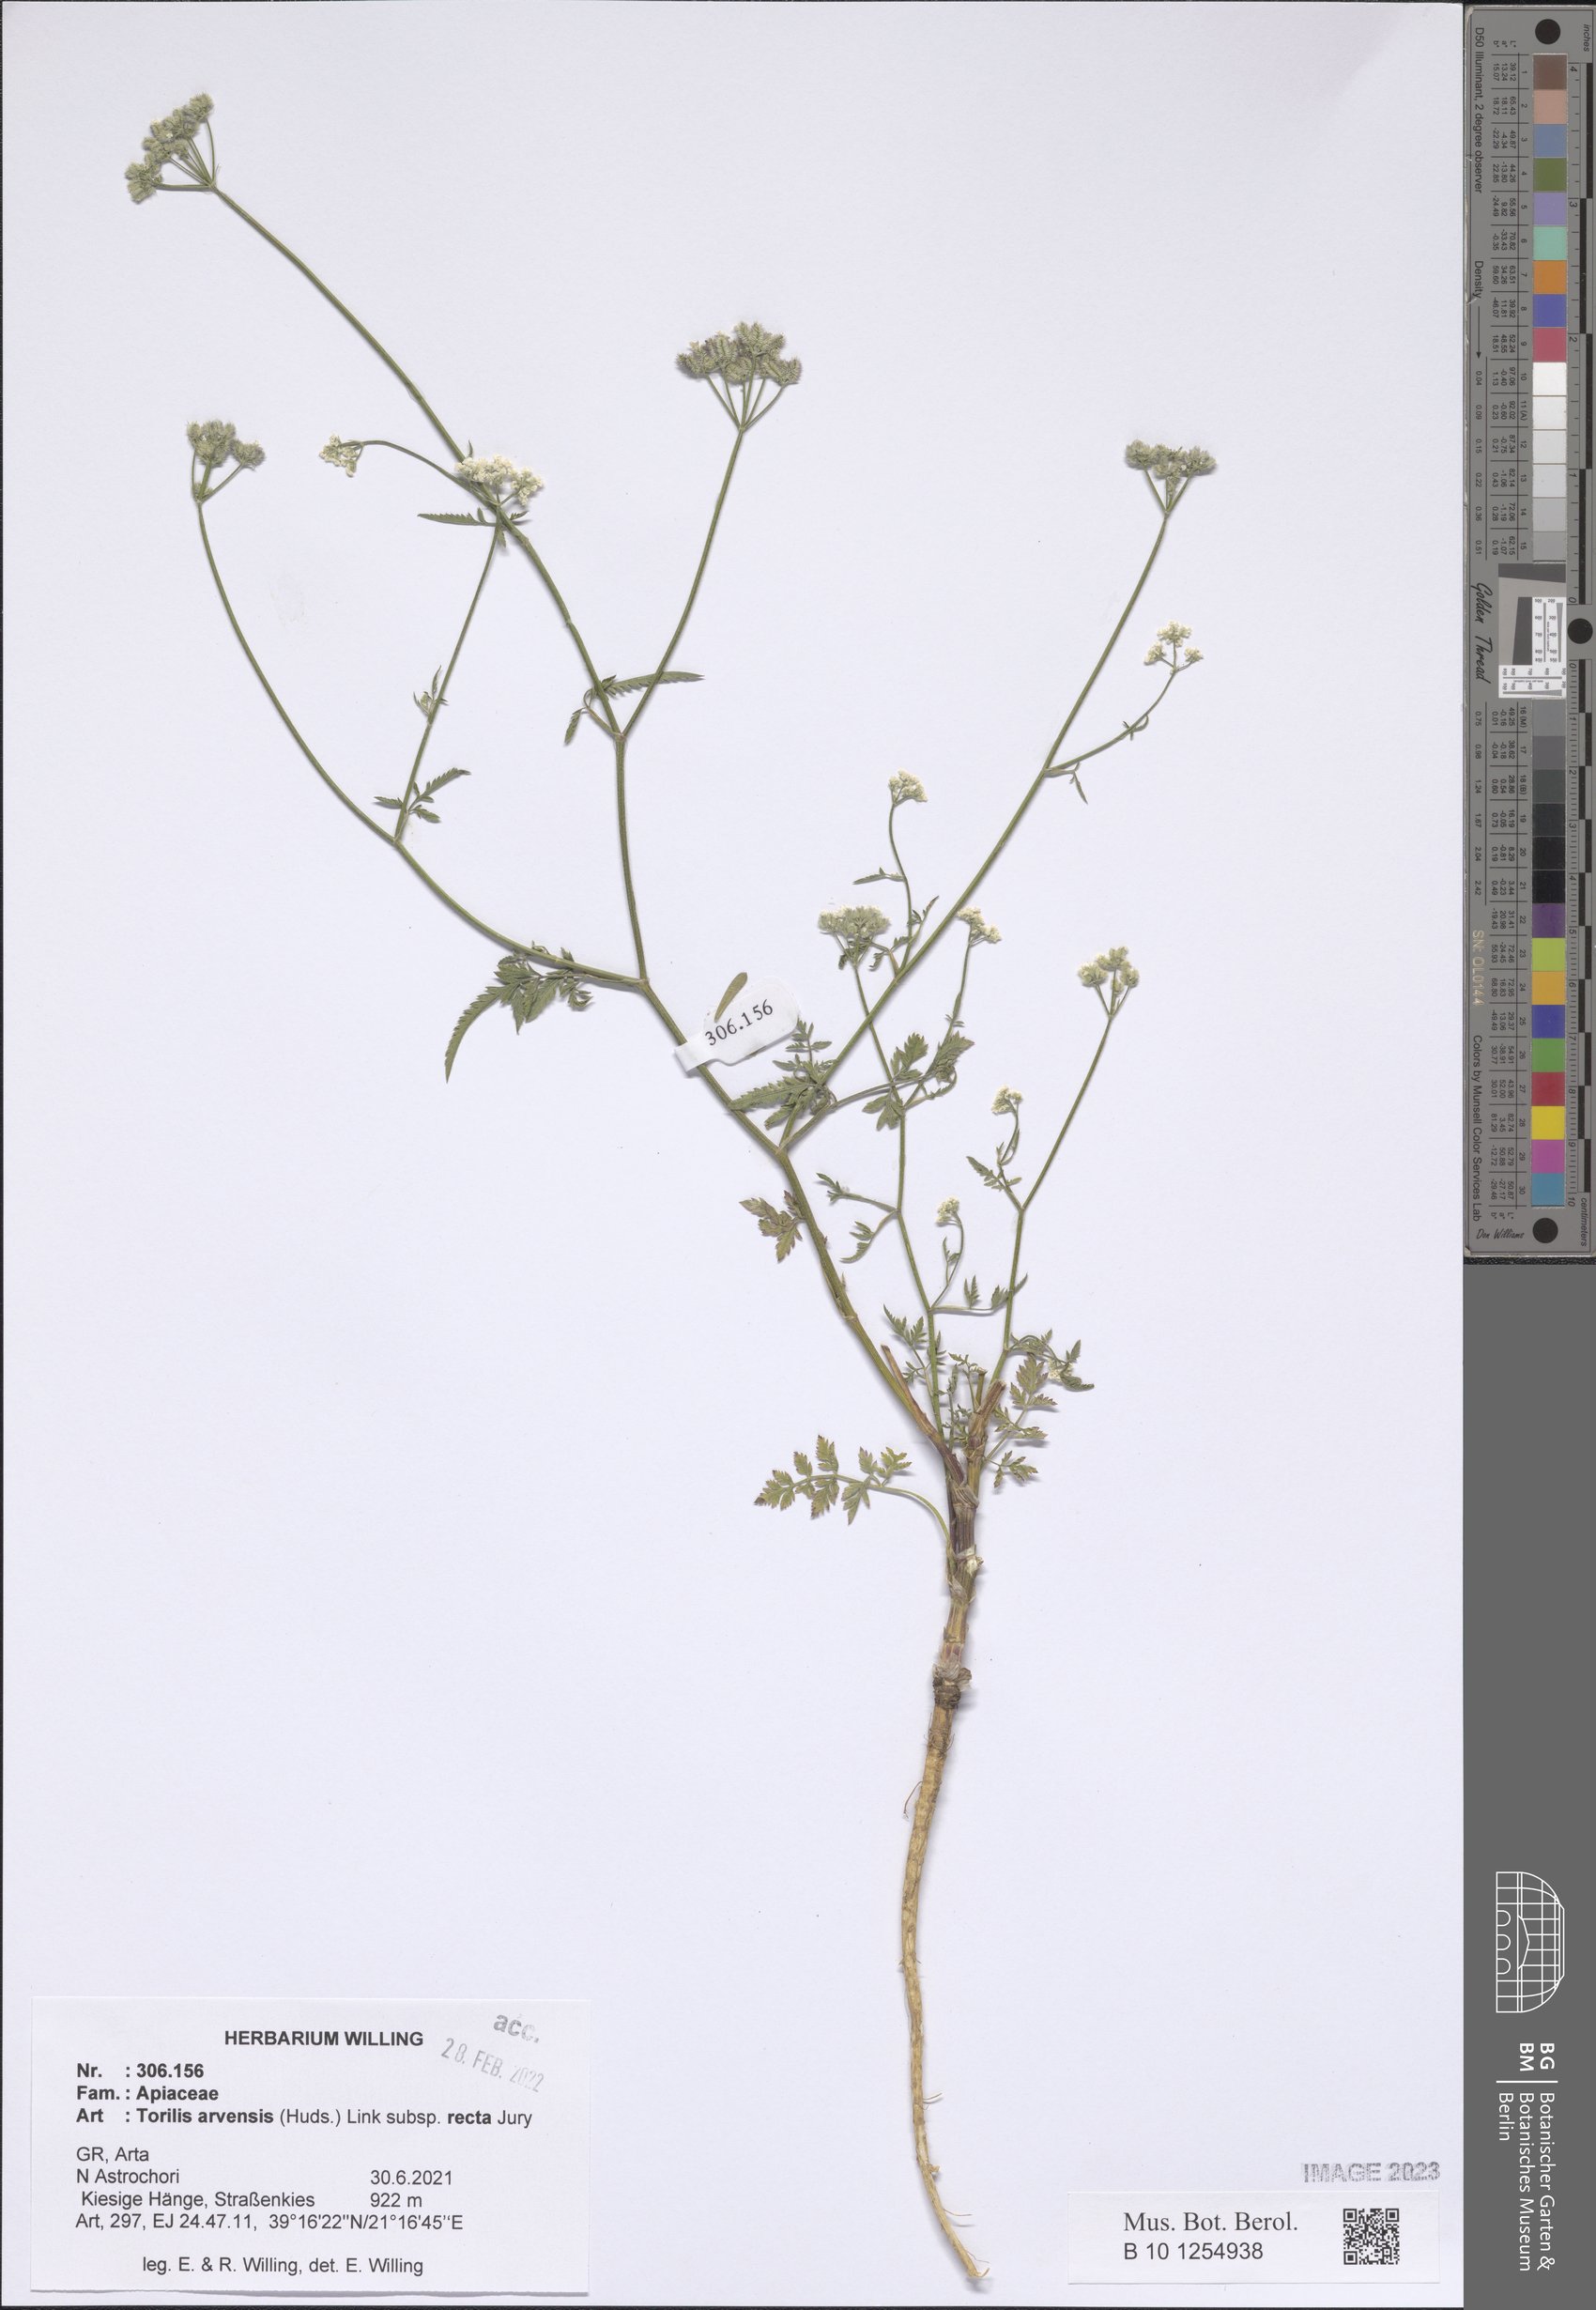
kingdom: Plantae
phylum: Tracheophyta
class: Magnoliopsida
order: Apiales
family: Apiaceae
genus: Torilis
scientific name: Torilis arvensis
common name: Spreading hedge-parsley
